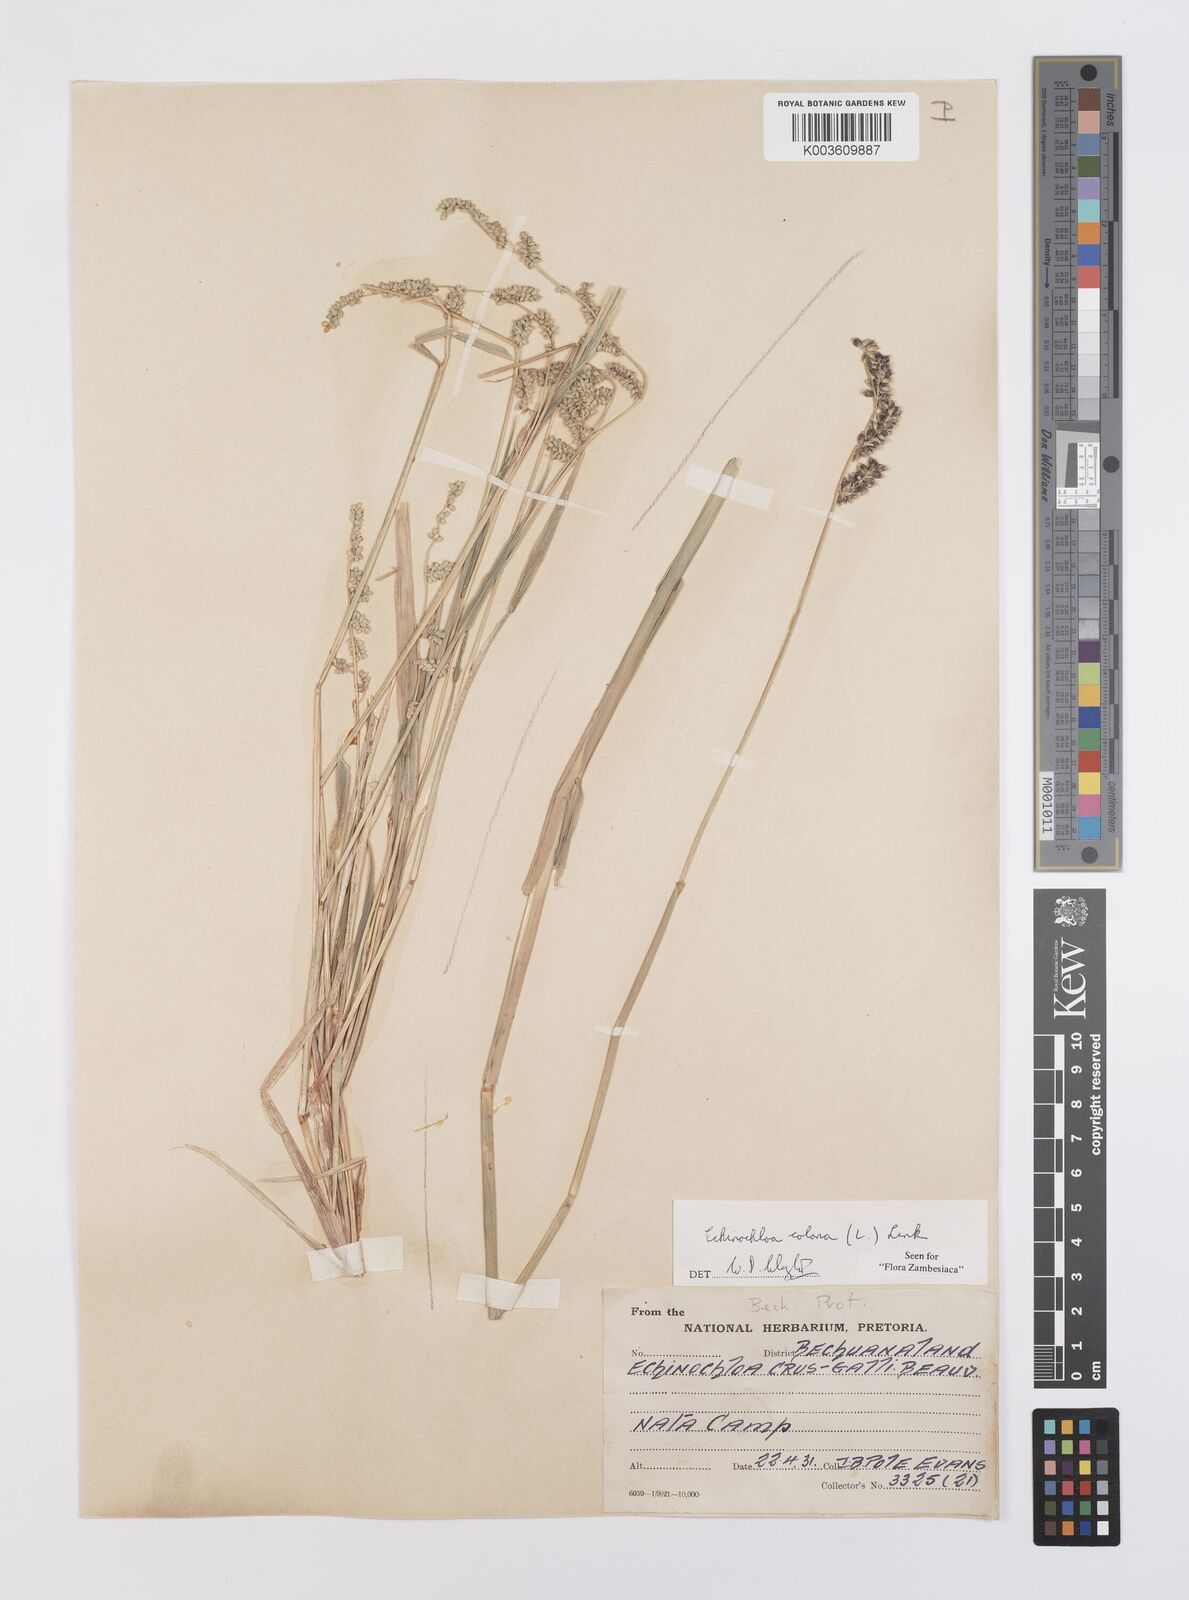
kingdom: Plantae
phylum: Tracheophyta
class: Liliopsida
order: Poales
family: Poaceae
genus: Echinochloa
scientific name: Echinochloa colonum
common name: Jungle rice
